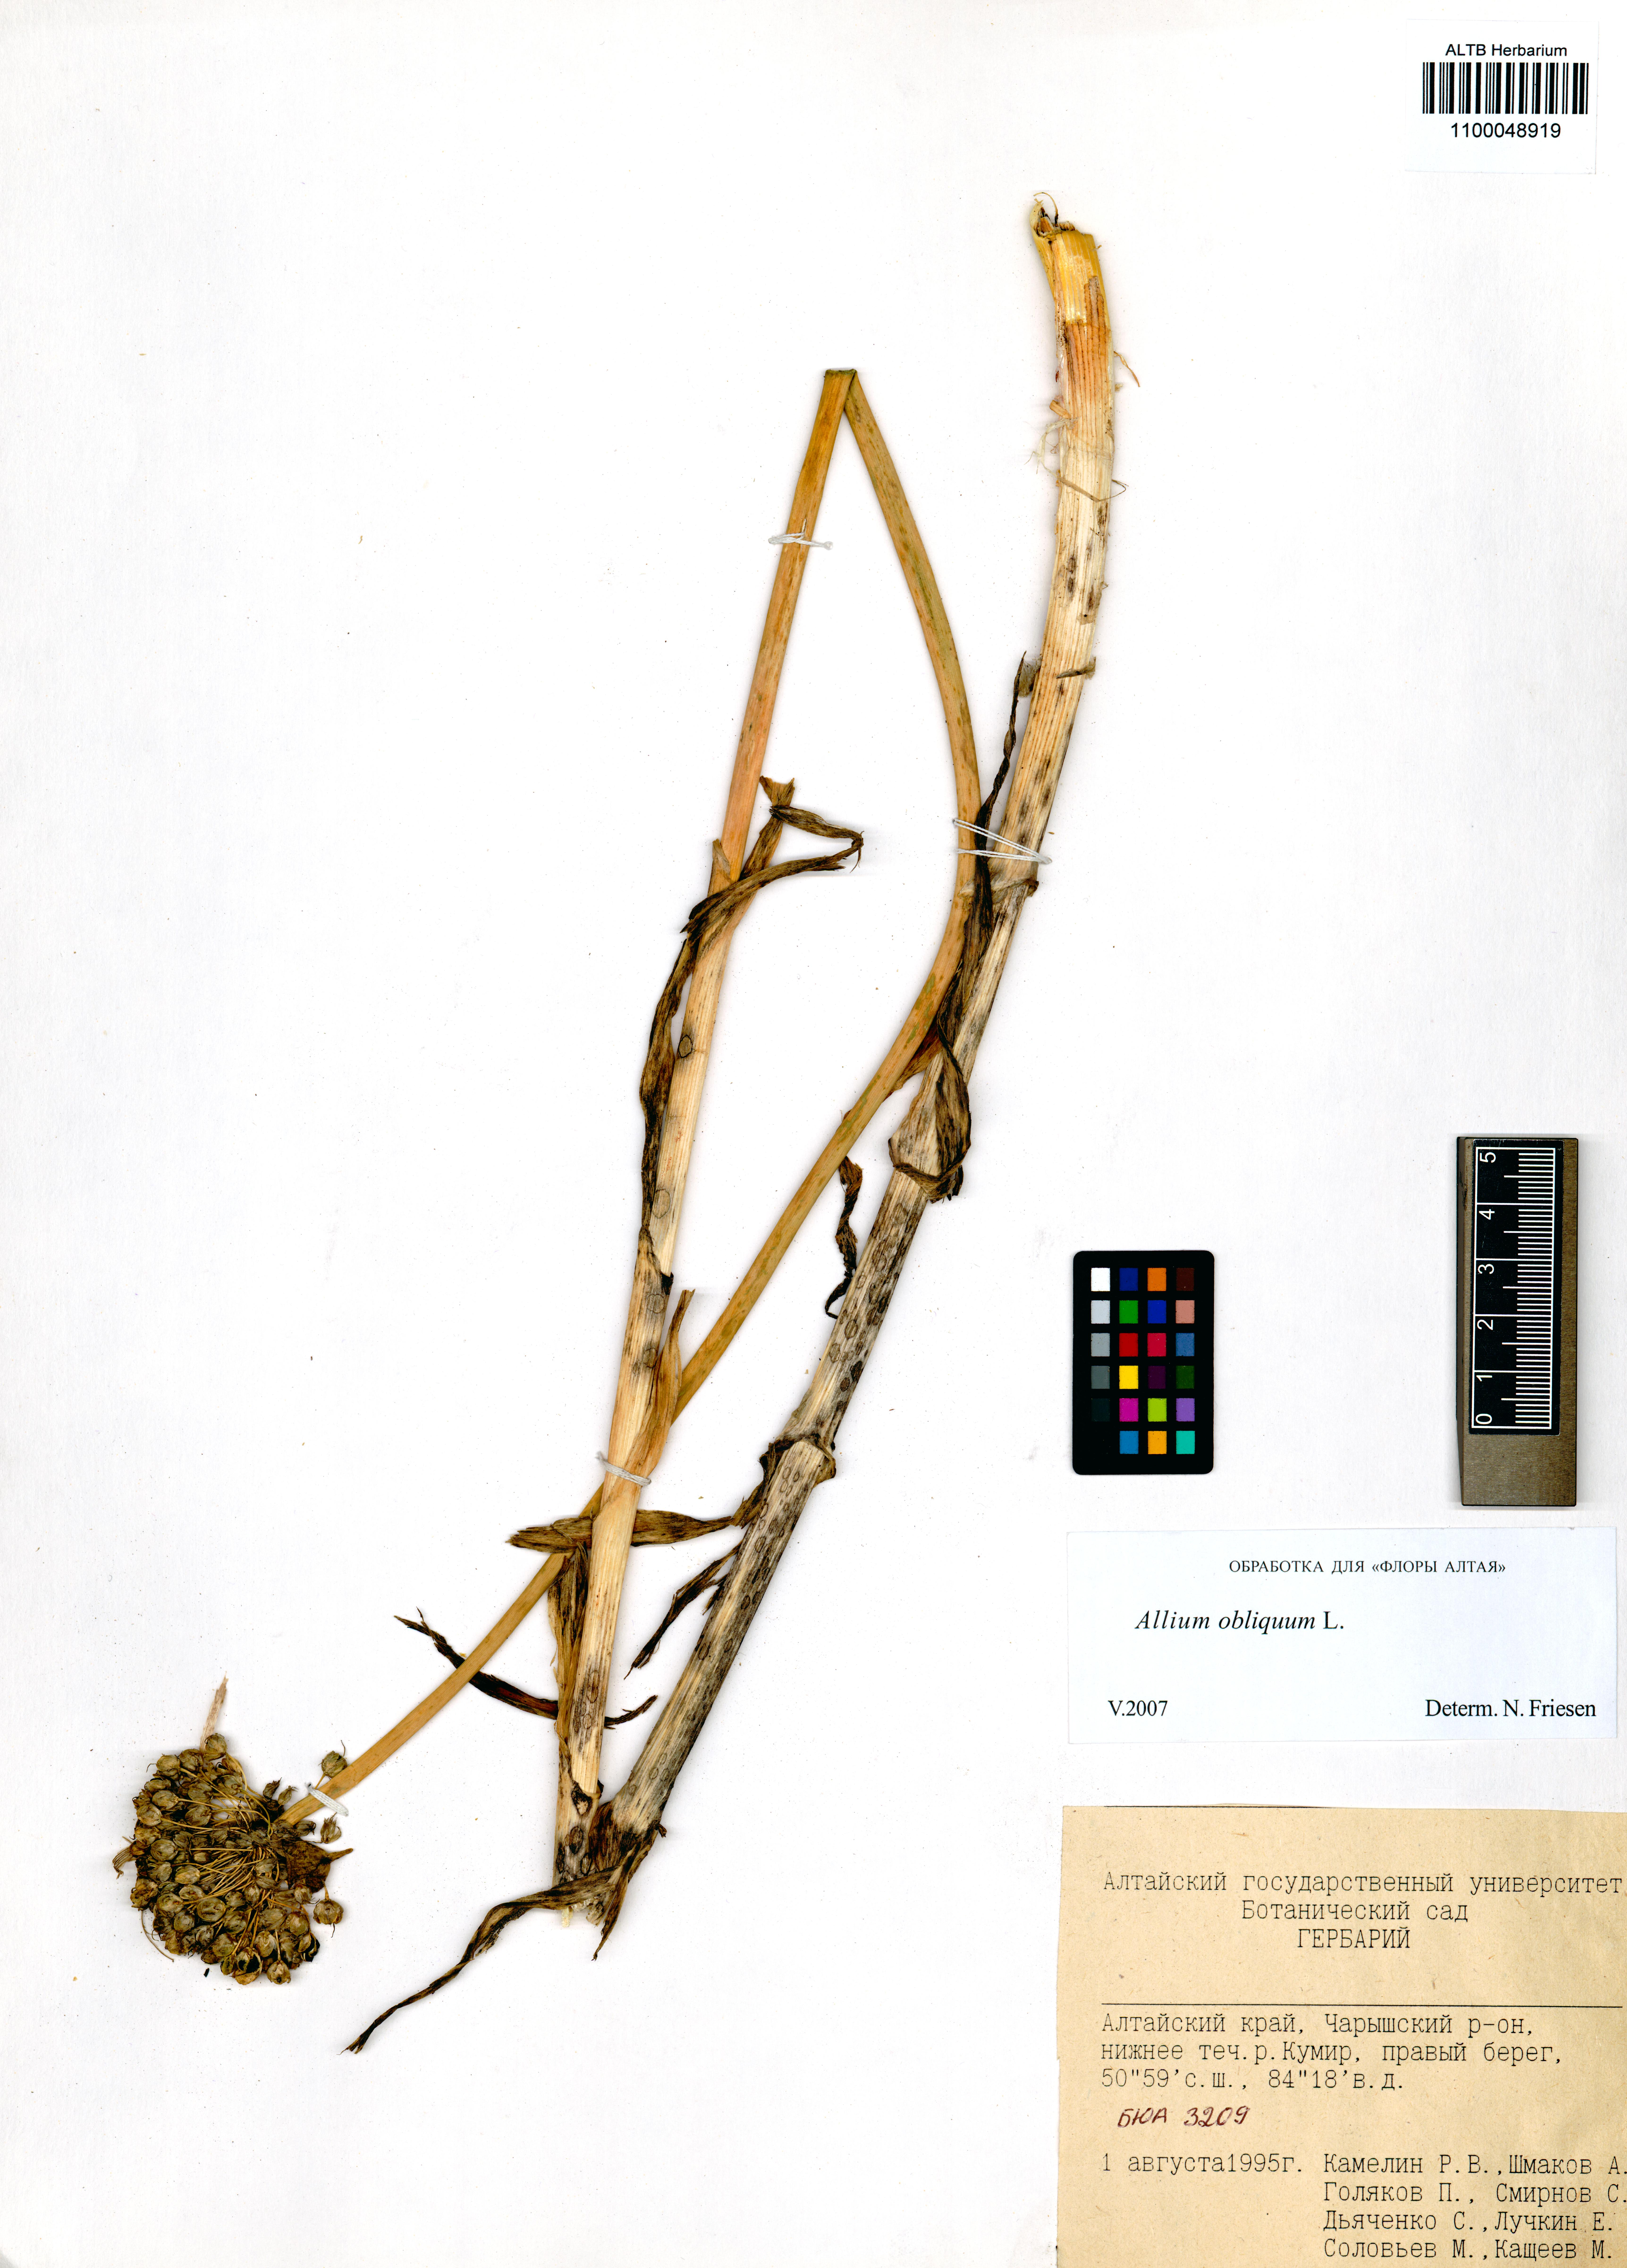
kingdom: Plantae
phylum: Tracheophyta
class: Liliopsida
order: Asparagales
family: Amaryllidaceae
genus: Allium
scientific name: Allium obliquum
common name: Oblique onion
